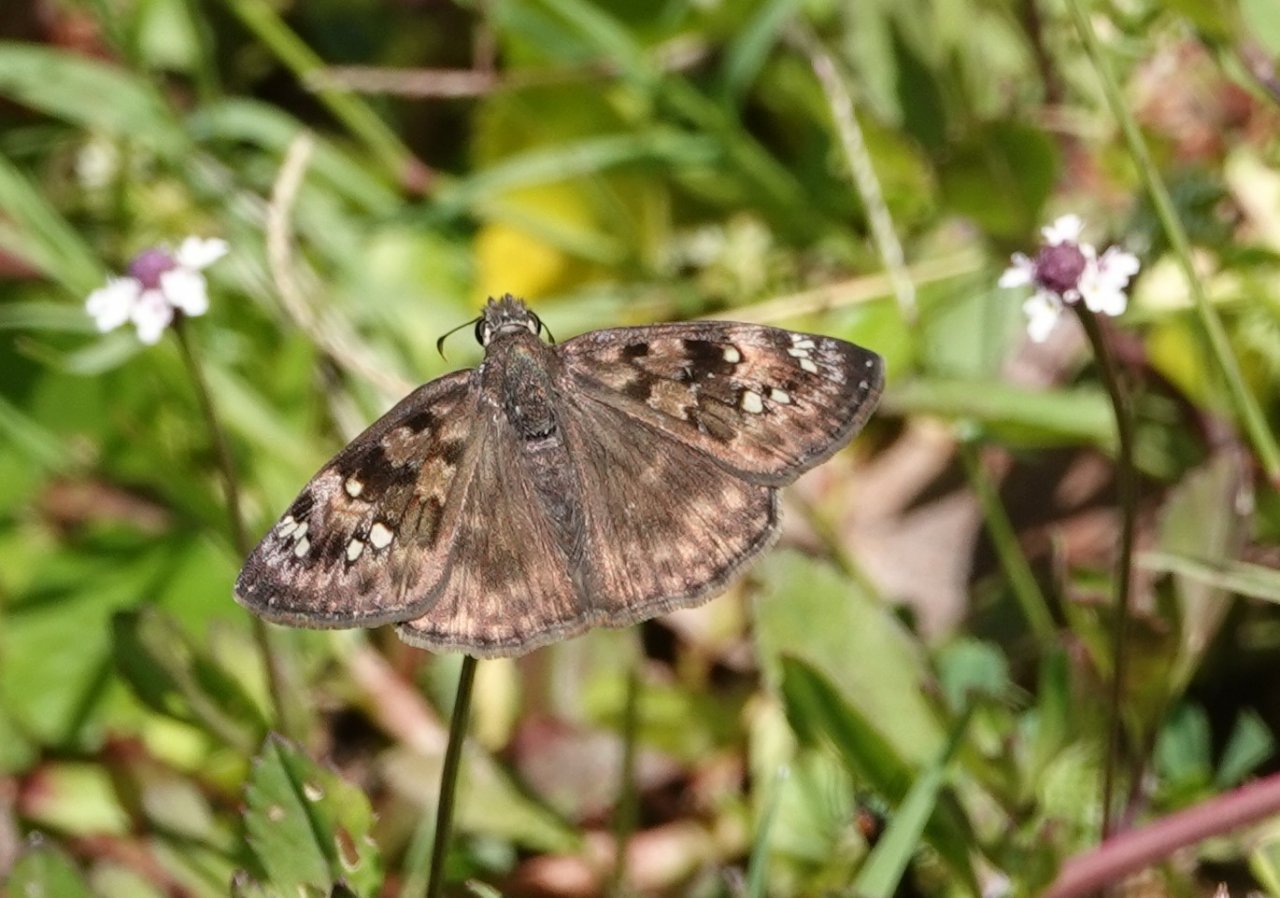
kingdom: Animalia
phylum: Arthropoda
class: Insecta
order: Lepidoptera
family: Hesperiidae
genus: Gesta
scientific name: Gesta
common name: Horace's Duskywing
